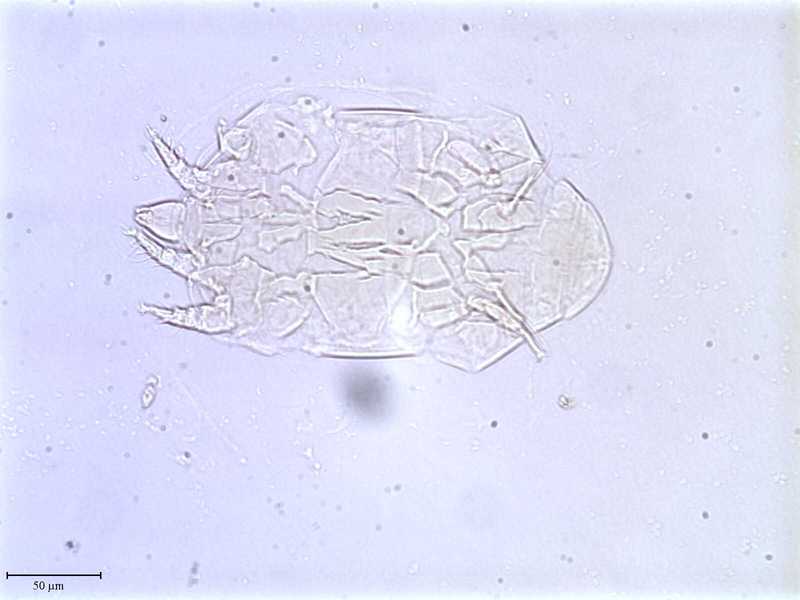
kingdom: Animalia
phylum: Arthropoda
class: Arachnida
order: Trombidiformes
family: Tarsonemidae
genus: Tarsonemus
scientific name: Tarsonemus minimax
